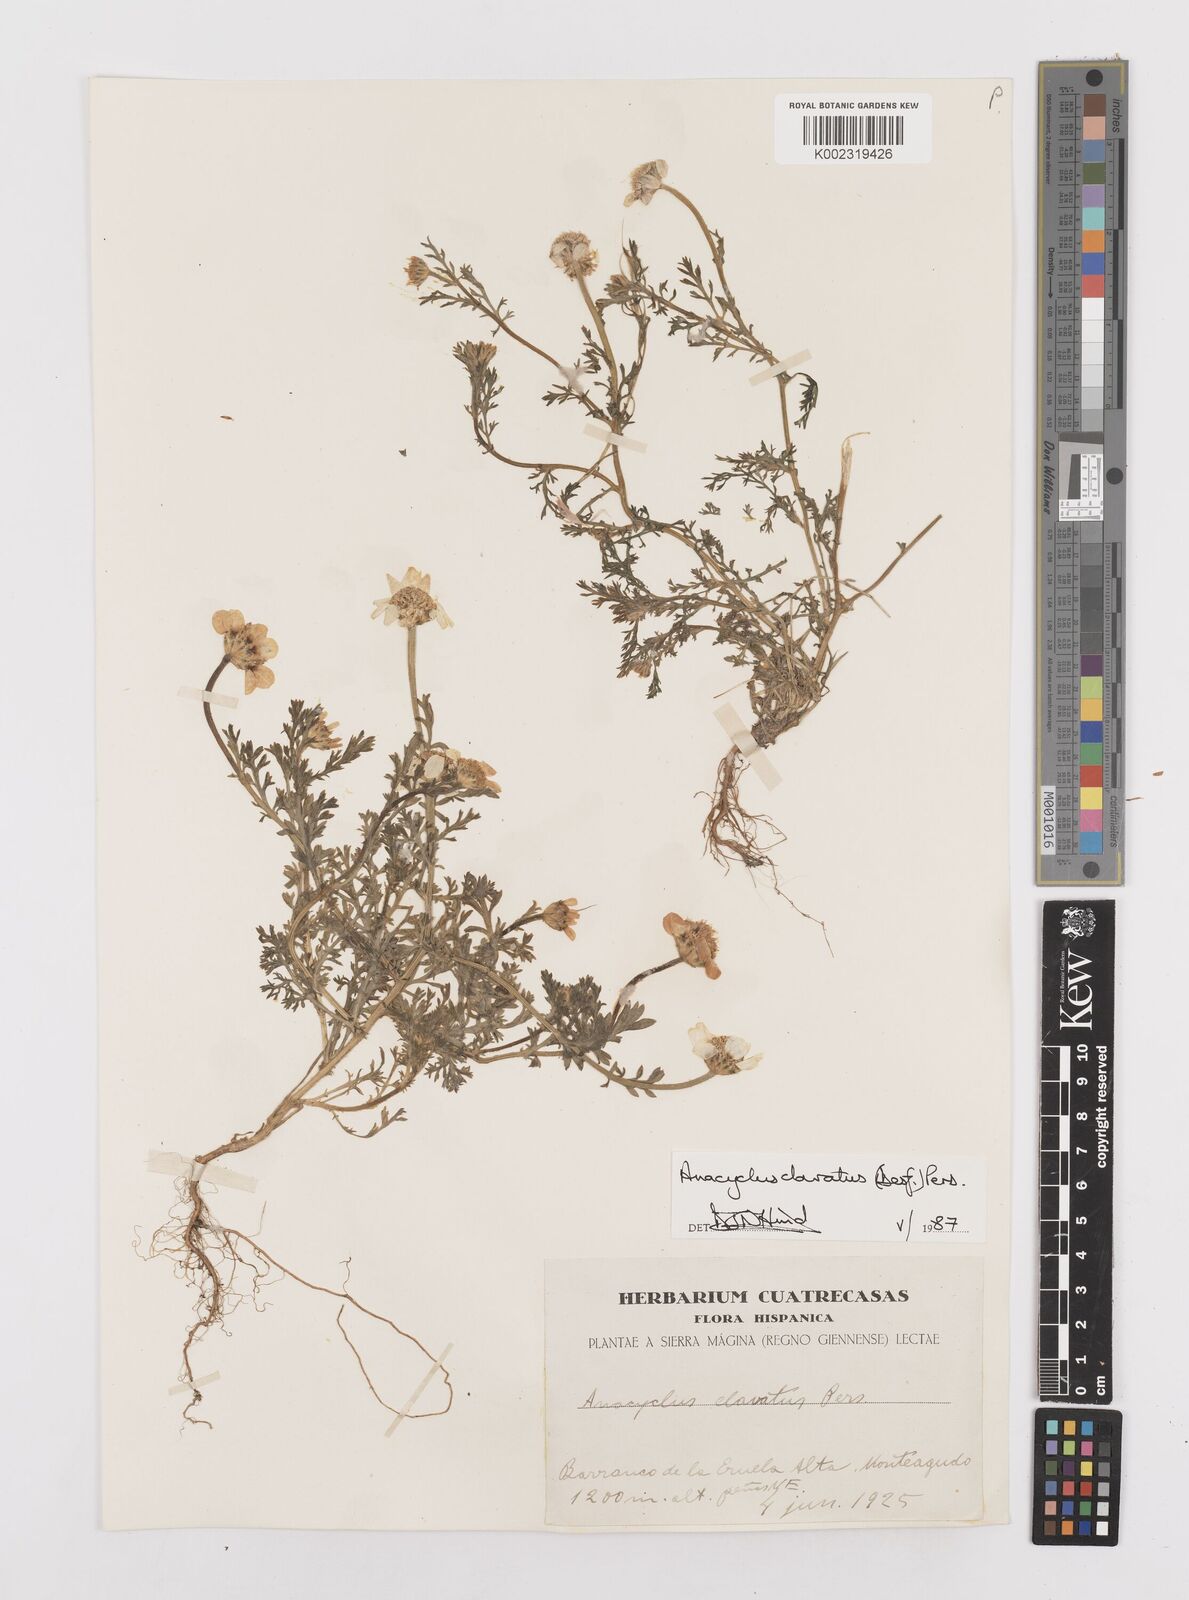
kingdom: Plantae
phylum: Tracheophyta
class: Magnoliopsida
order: Asterales
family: Asteraceae
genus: Anacyclus
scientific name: Anacyclus clavatus
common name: Whitebuttons
